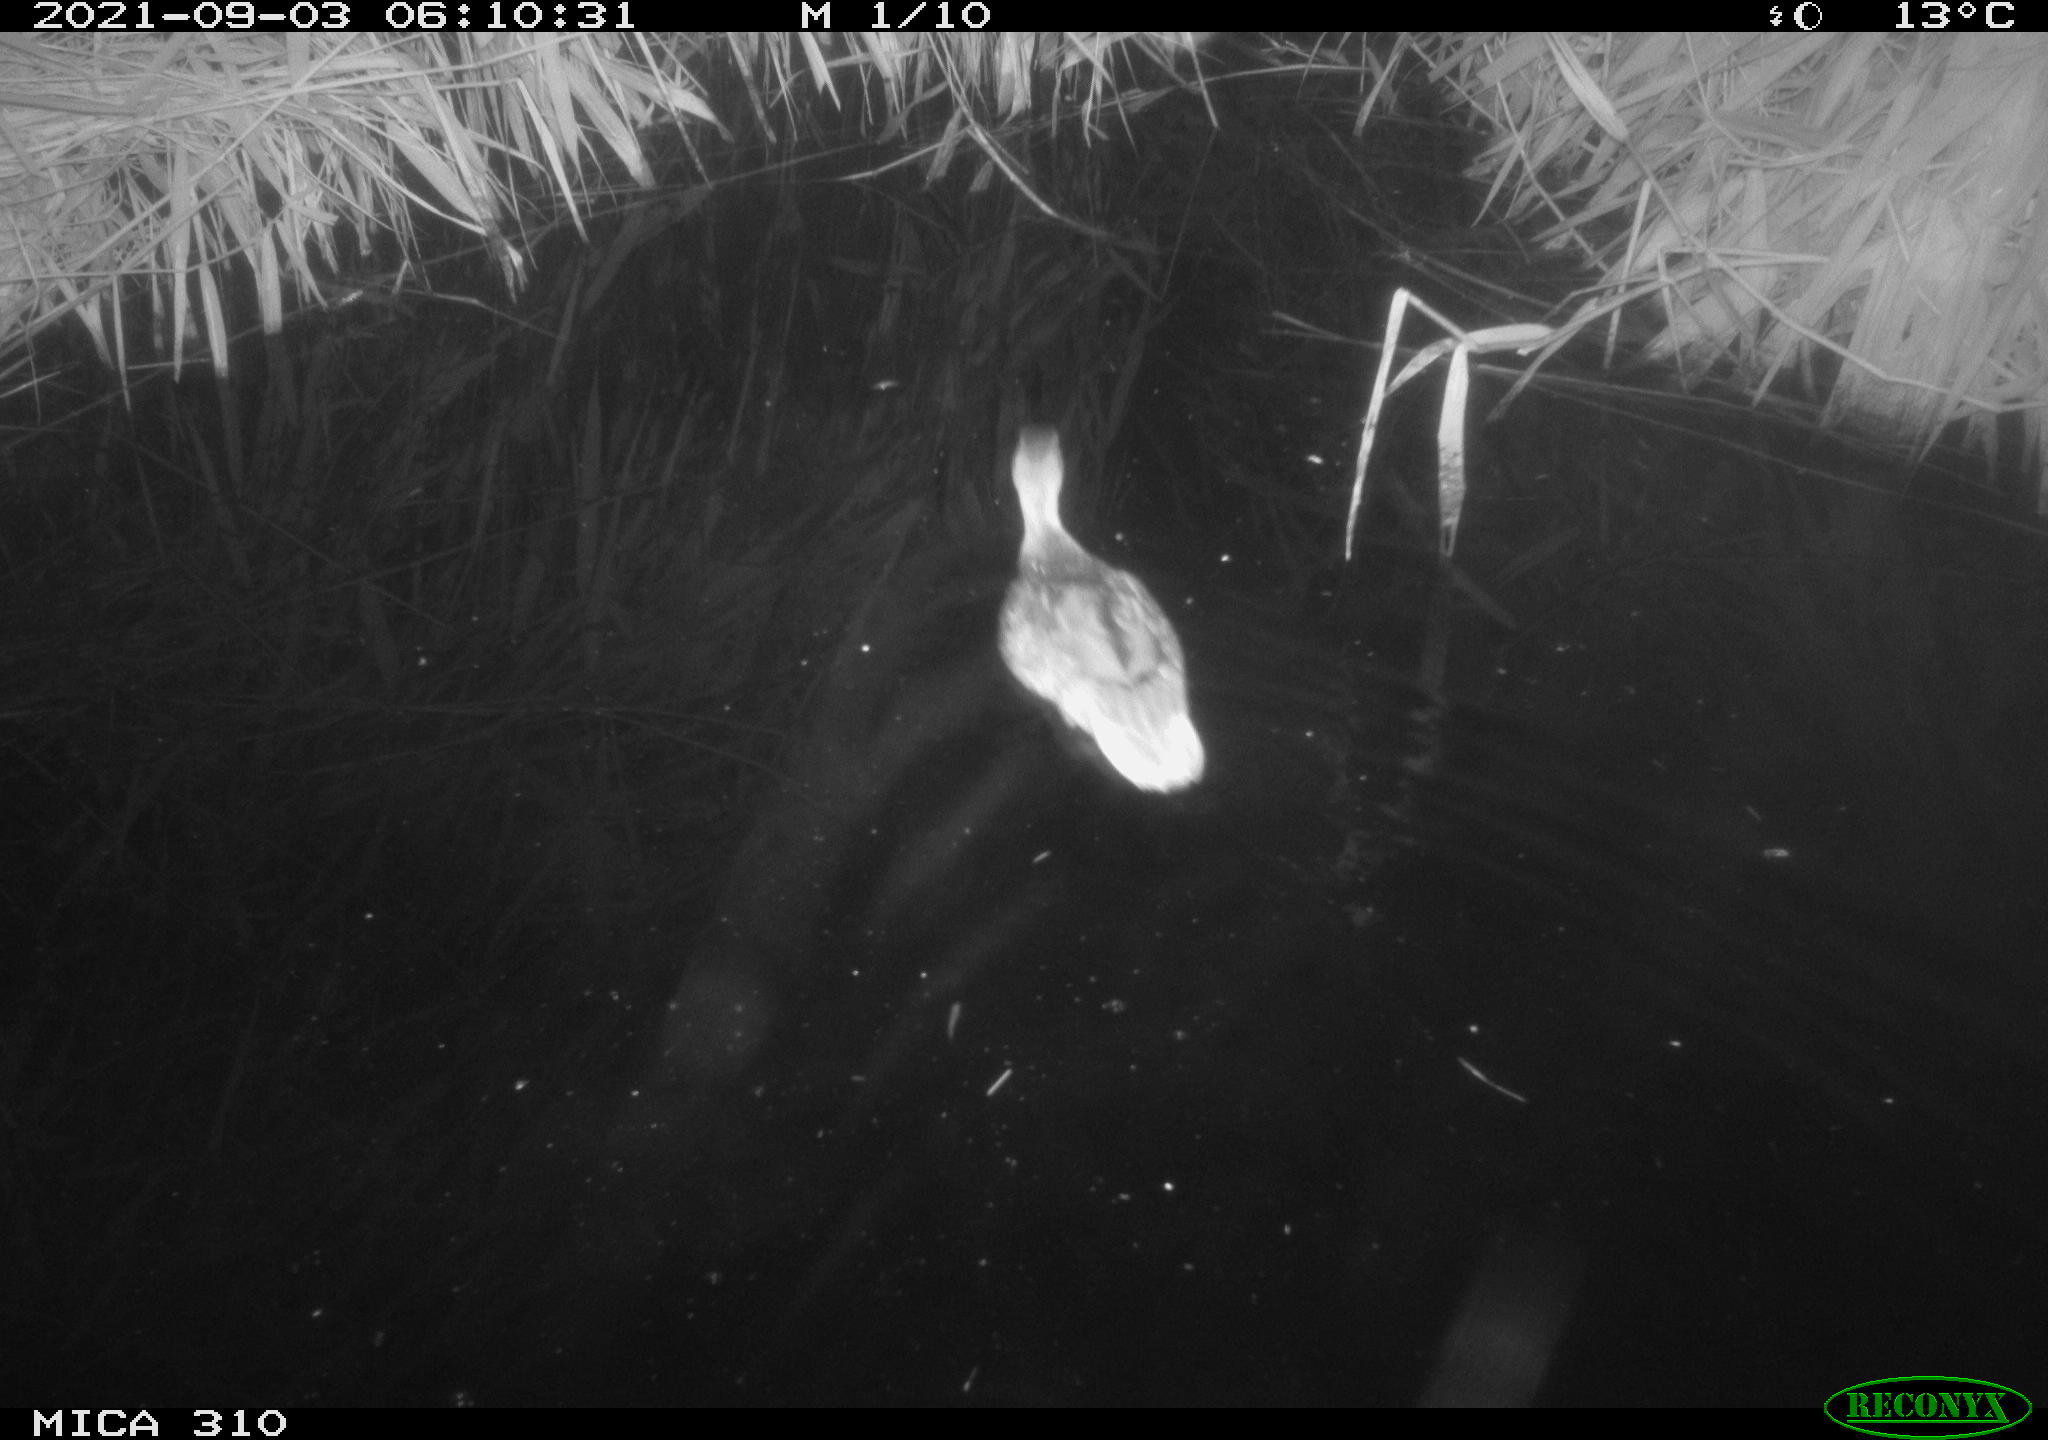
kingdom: Animalia
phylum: Chordata
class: Aves
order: Anseriformes
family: Anatidae
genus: Anas
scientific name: Anas platyrhynchos
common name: Mallard
